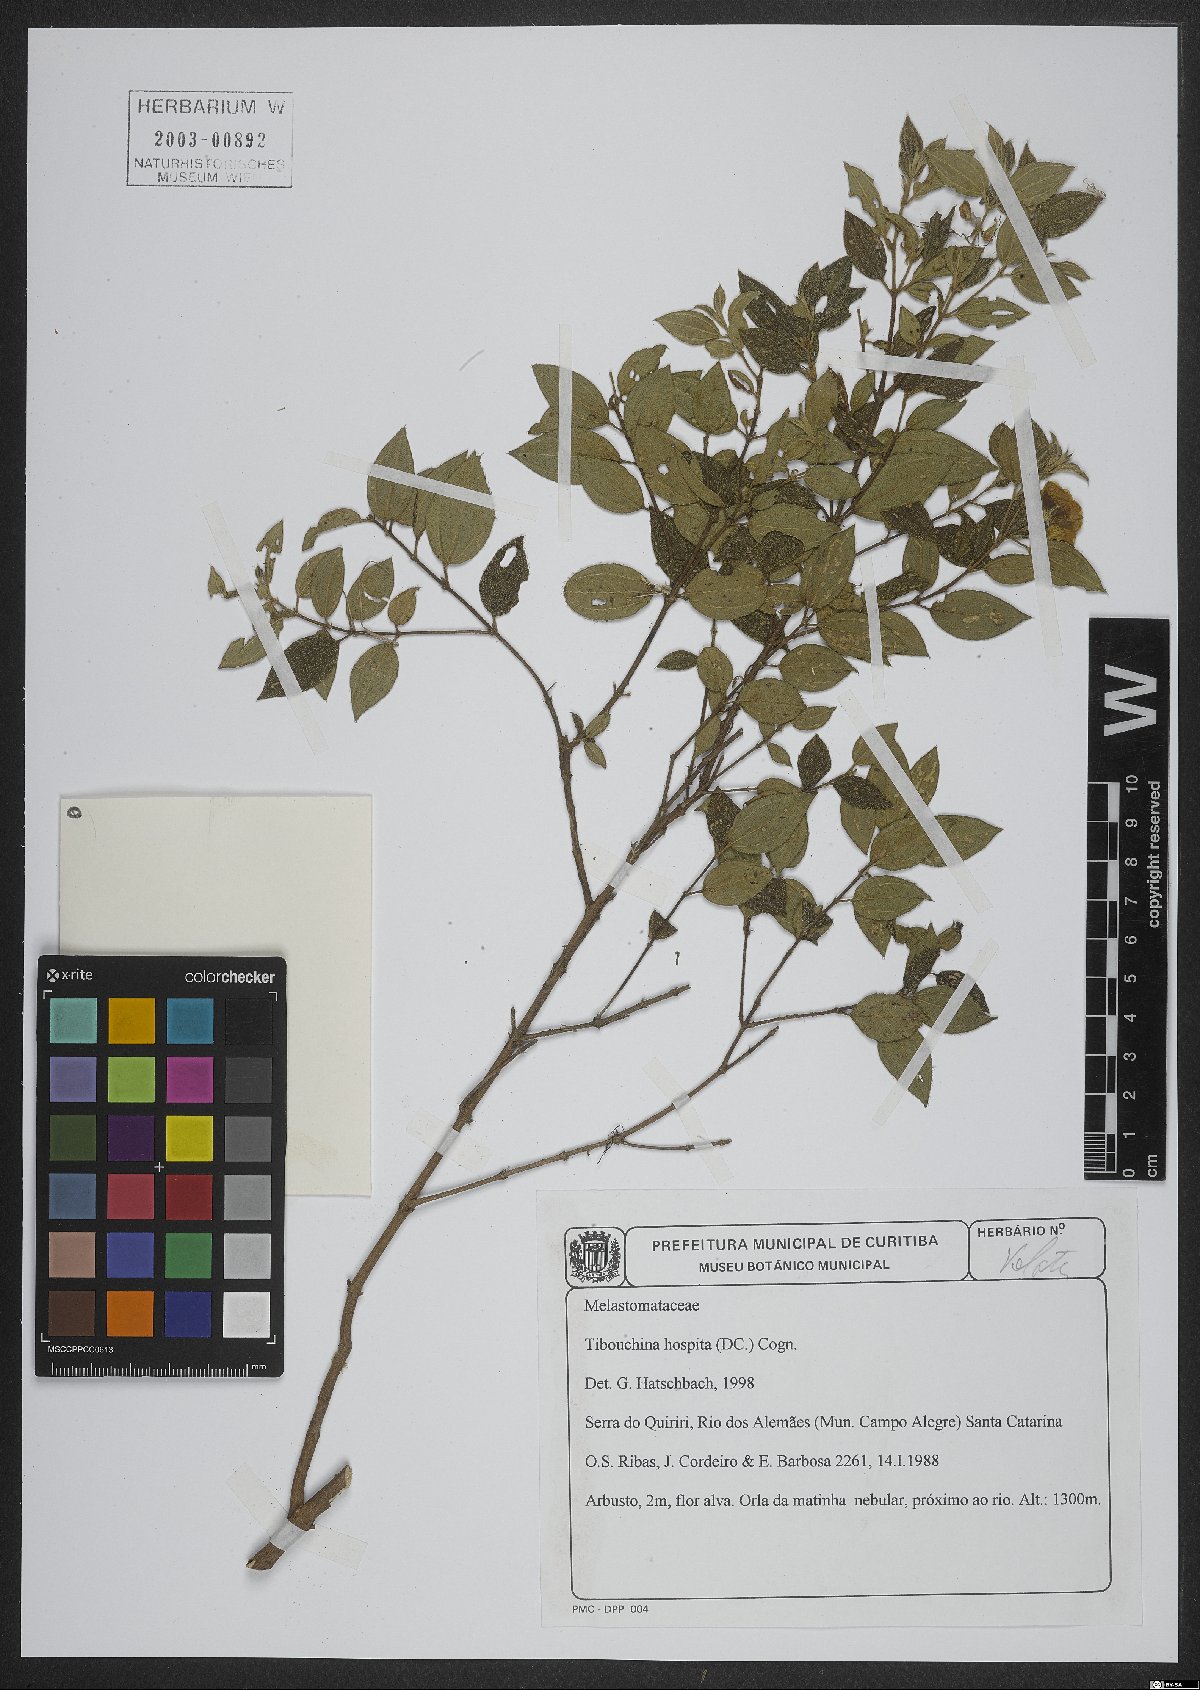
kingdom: Plantae
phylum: Tracheophyta
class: Magnoliopsida
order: Myrtales
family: Melastomataceae
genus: Pleroma
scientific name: Pleroma hospitum
